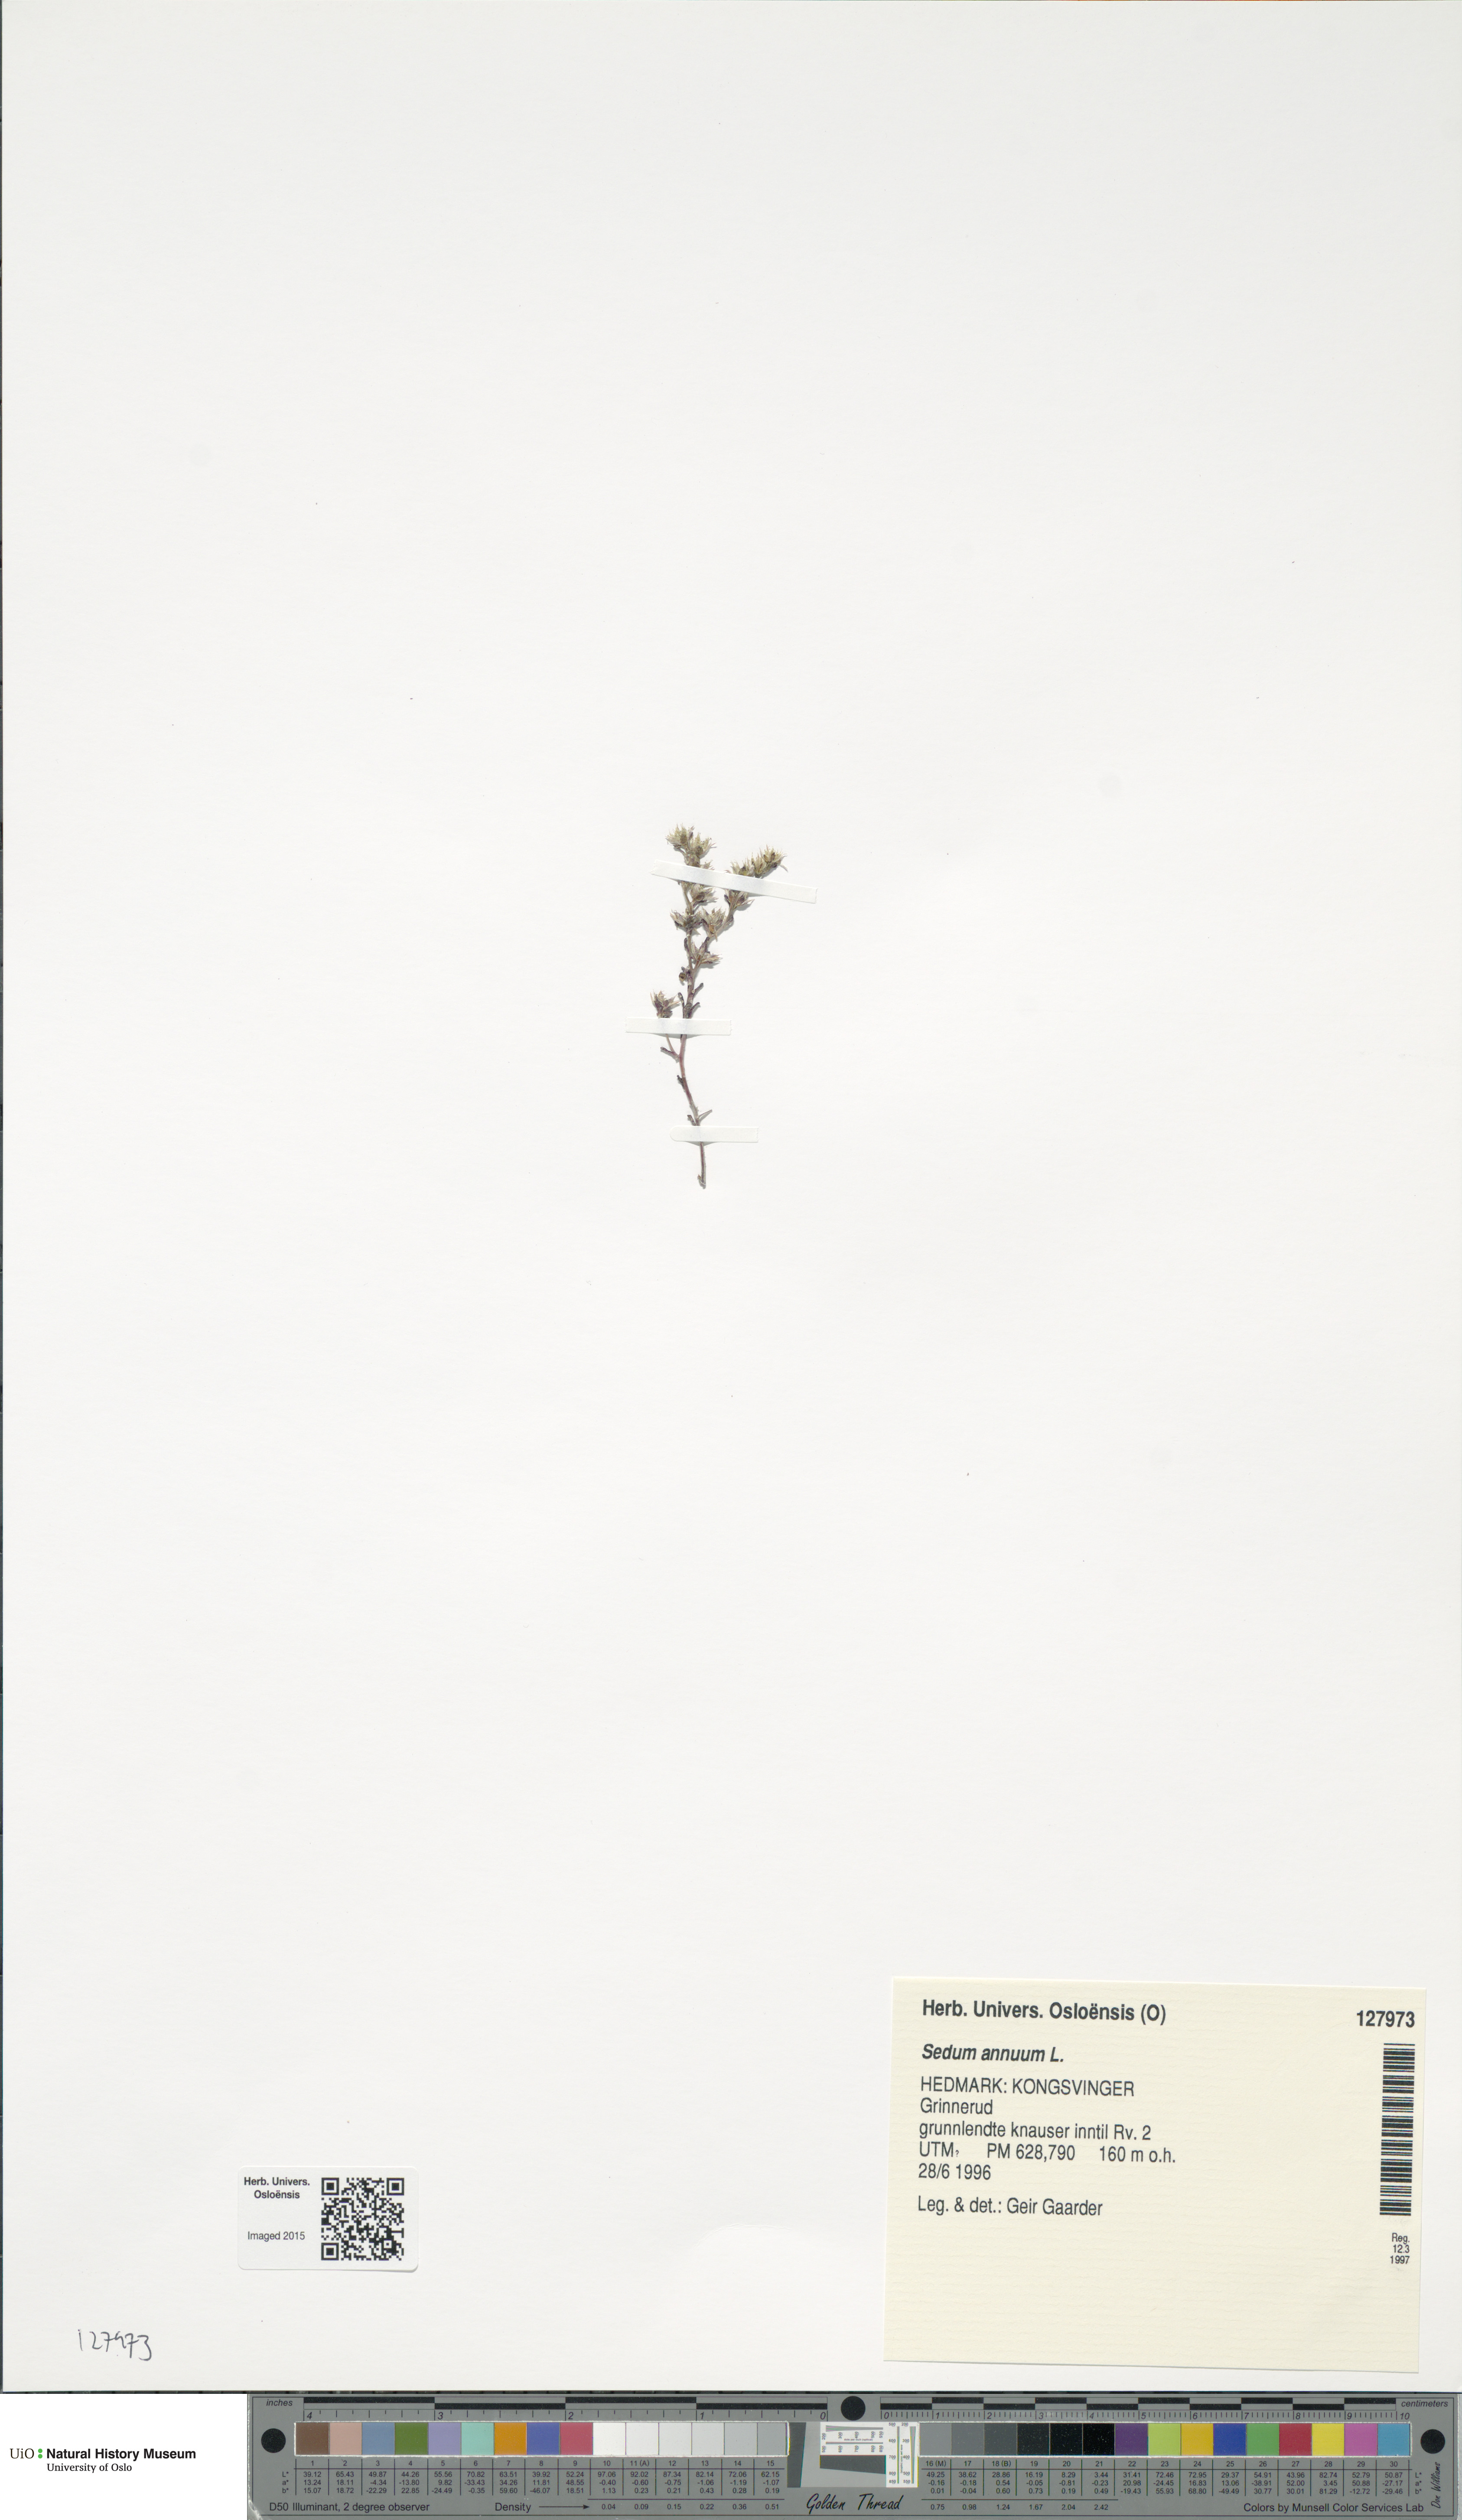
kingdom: Plantae
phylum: Tracheophyta
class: Magnoliopsida
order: Saxifragales
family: Crassulaceae
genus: Sedum
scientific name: Sedum annuum
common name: Annual stonecrop
